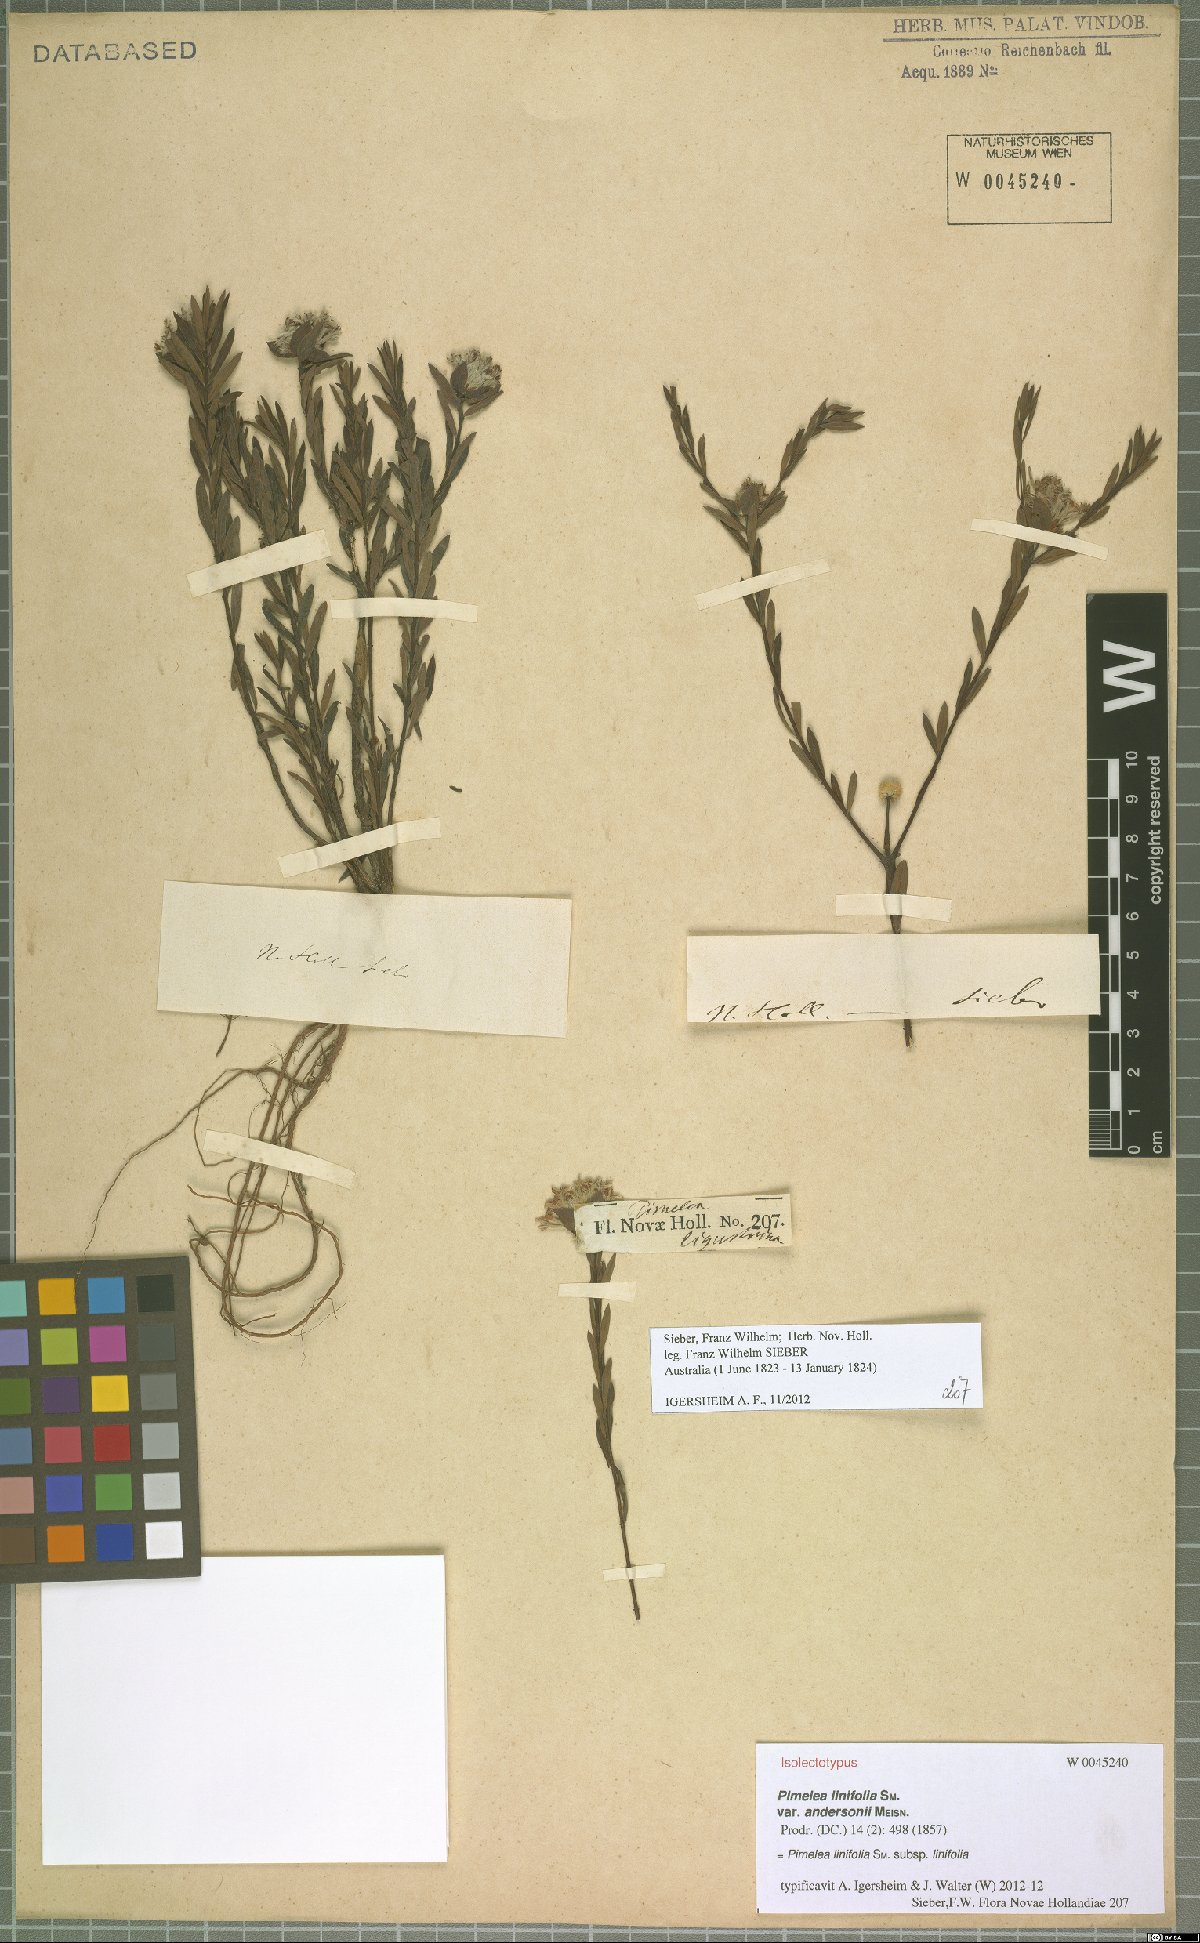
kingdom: Plantae
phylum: Tracheophyta
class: Magnoliopsida
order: Malvales
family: Thymelaeaceae
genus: Pimelea
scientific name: Pimelea linifolia
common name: Queen-of-the-bush
